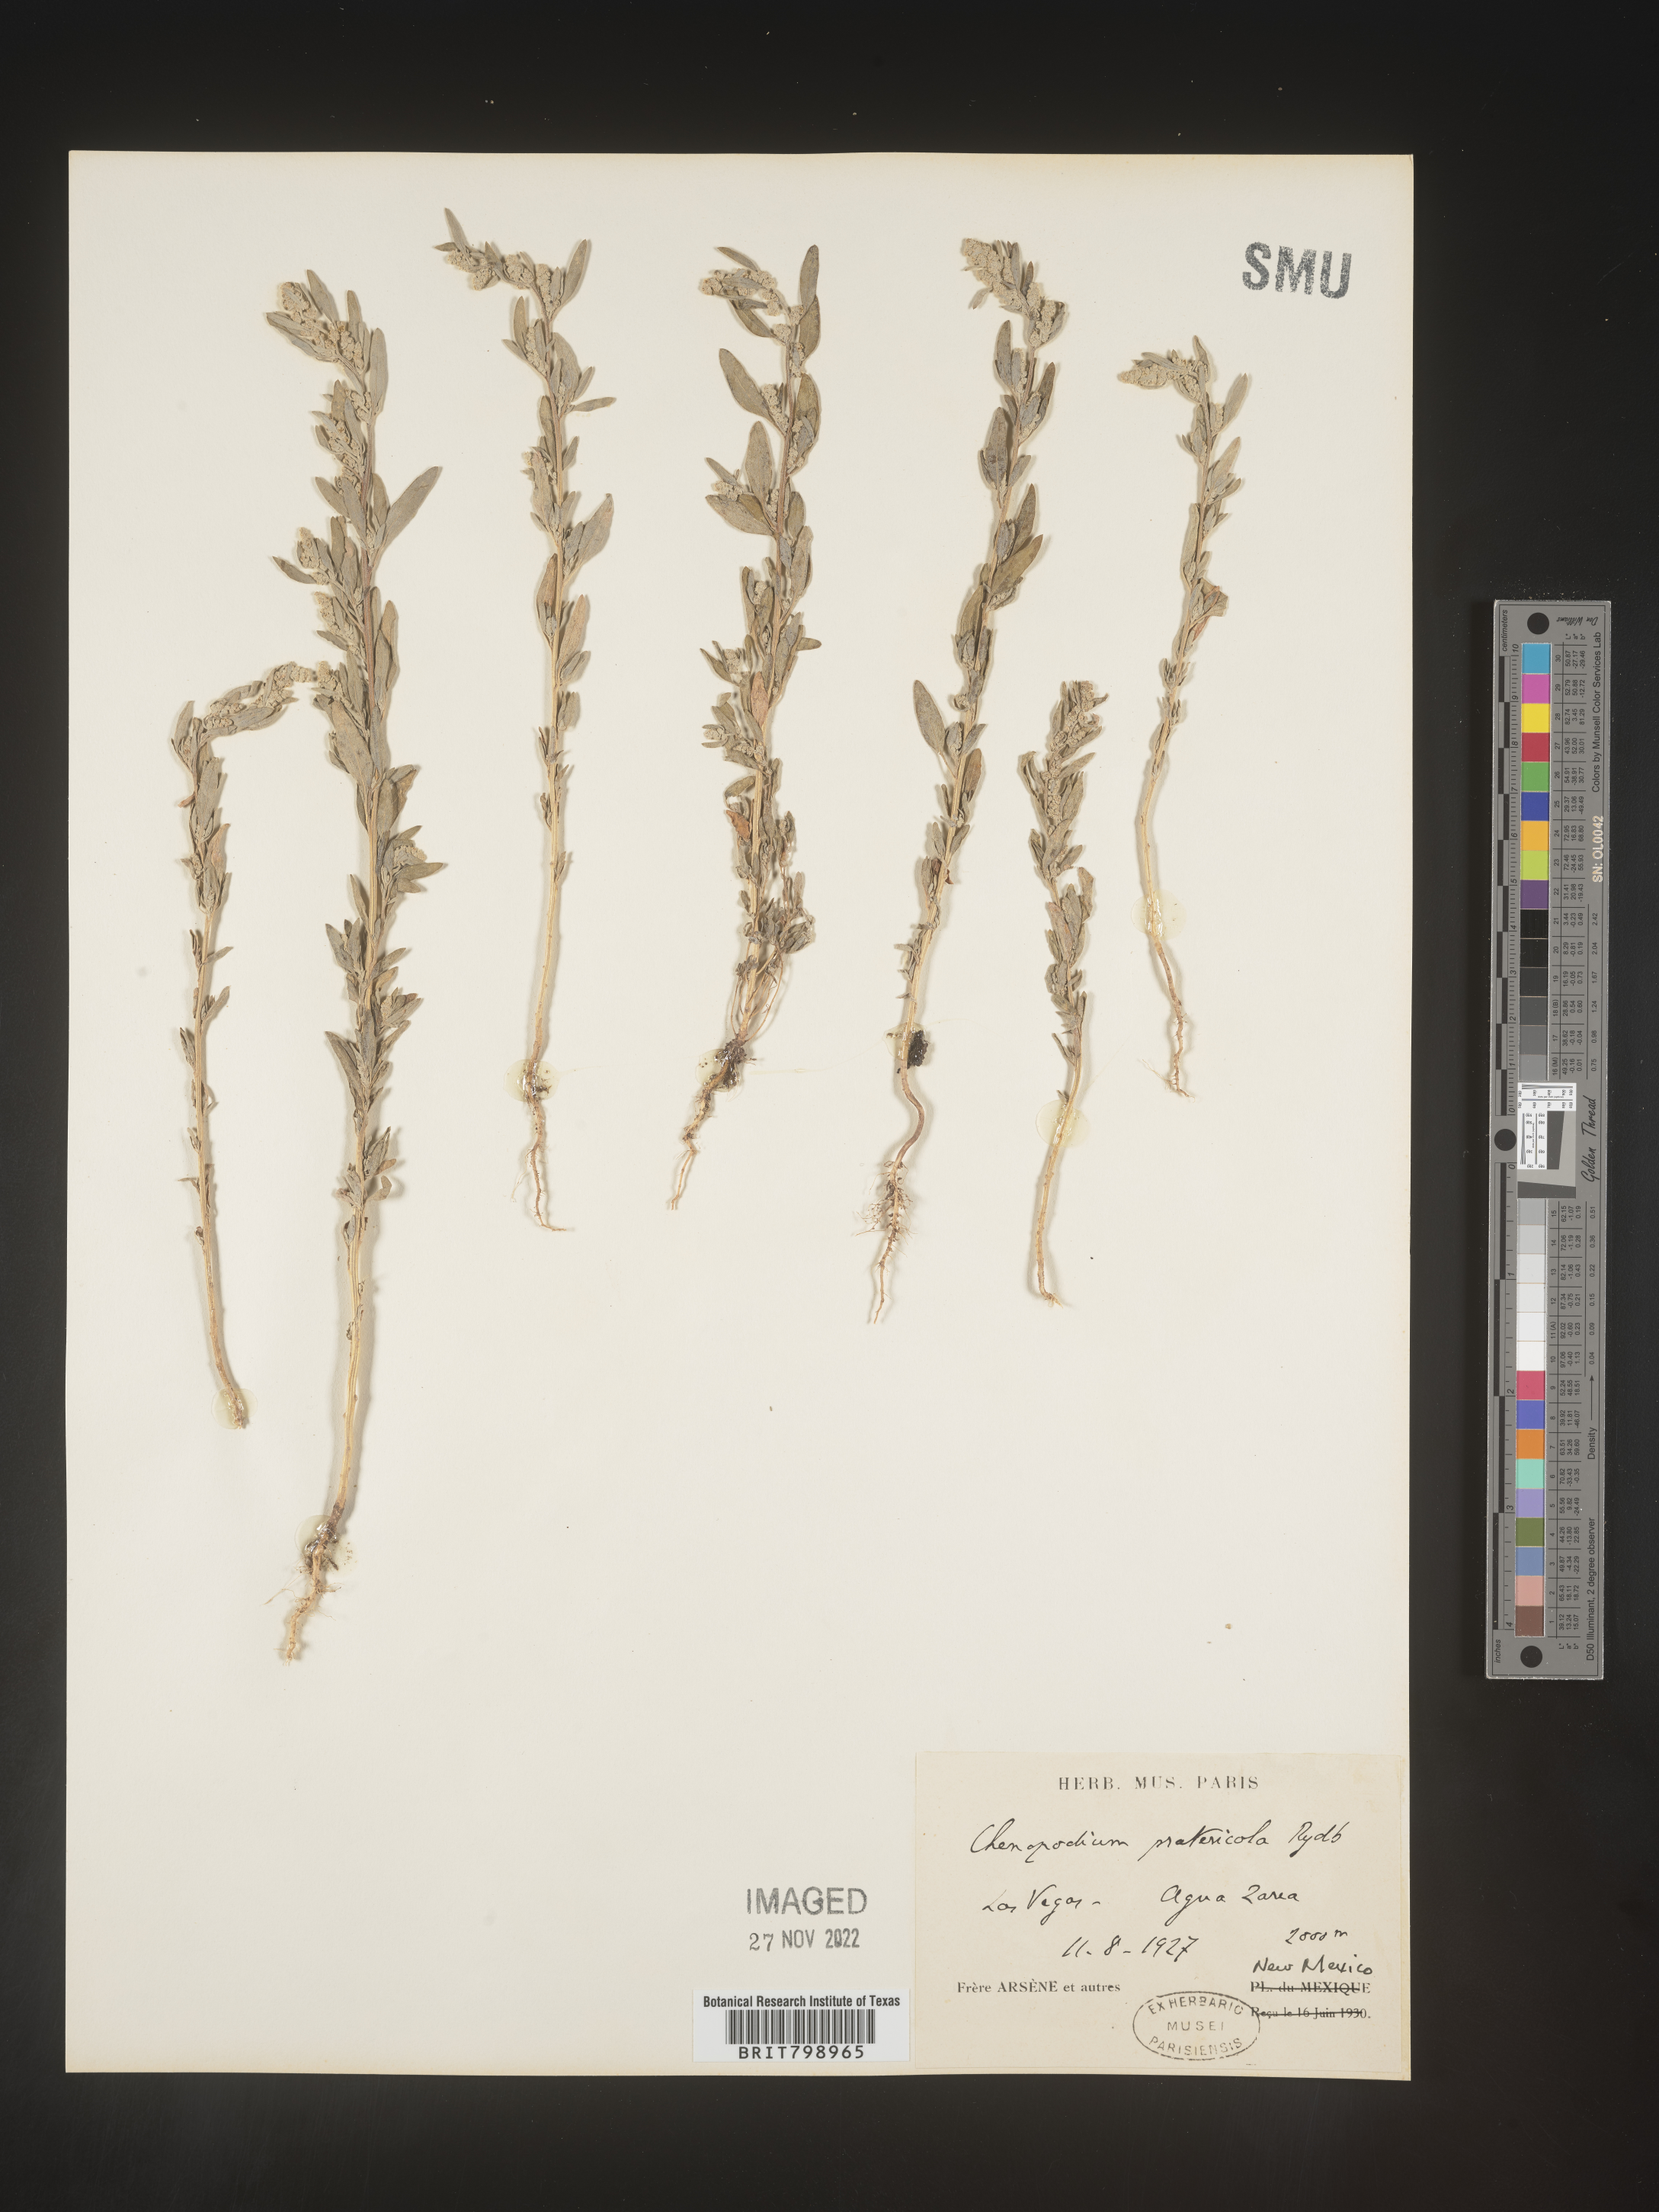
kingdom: Plantae
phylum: Tracheophyta
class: Magnoliopsida
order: Caryophyllales
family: Amaranthaceae
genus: Chenopodium
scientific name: Chenopodium pratericola
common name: Desert goosefoot
